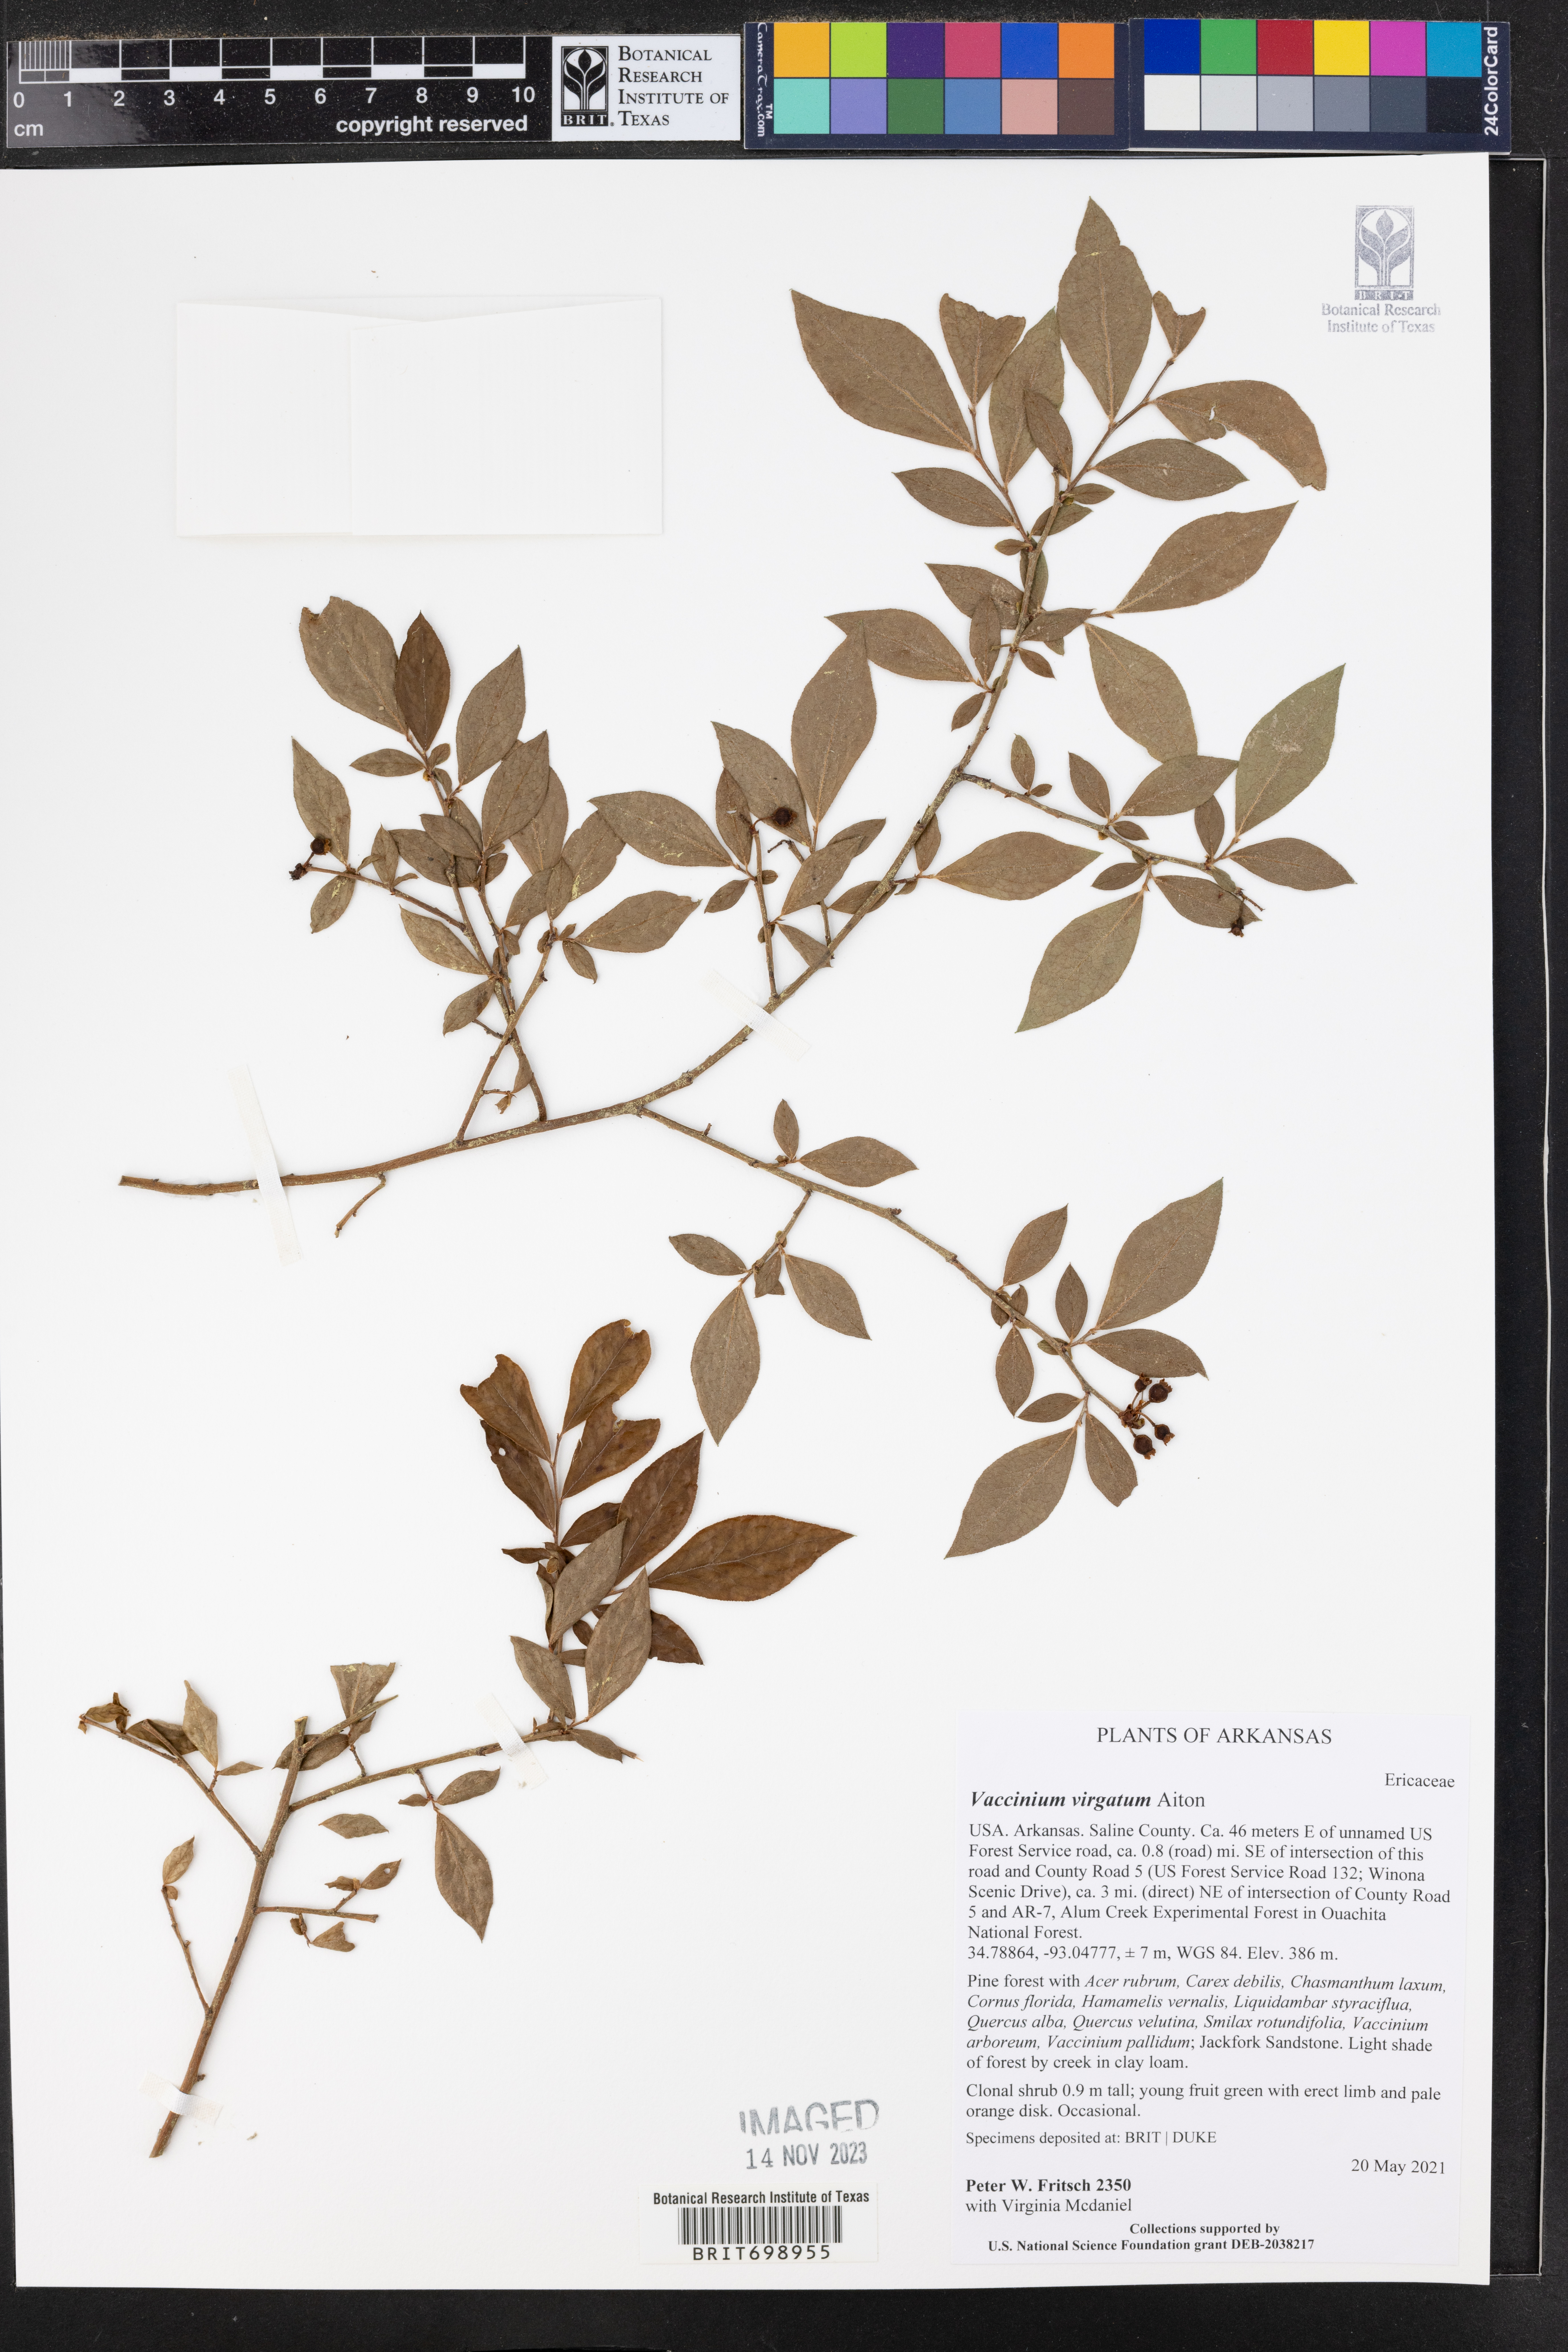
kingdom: Plantae
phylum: Tracheophyta
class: Magnoliopsida
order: Ericales
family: Ericaceae
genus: Vaccinium
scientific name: Vaccinium corymbosum
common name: Blueberry
